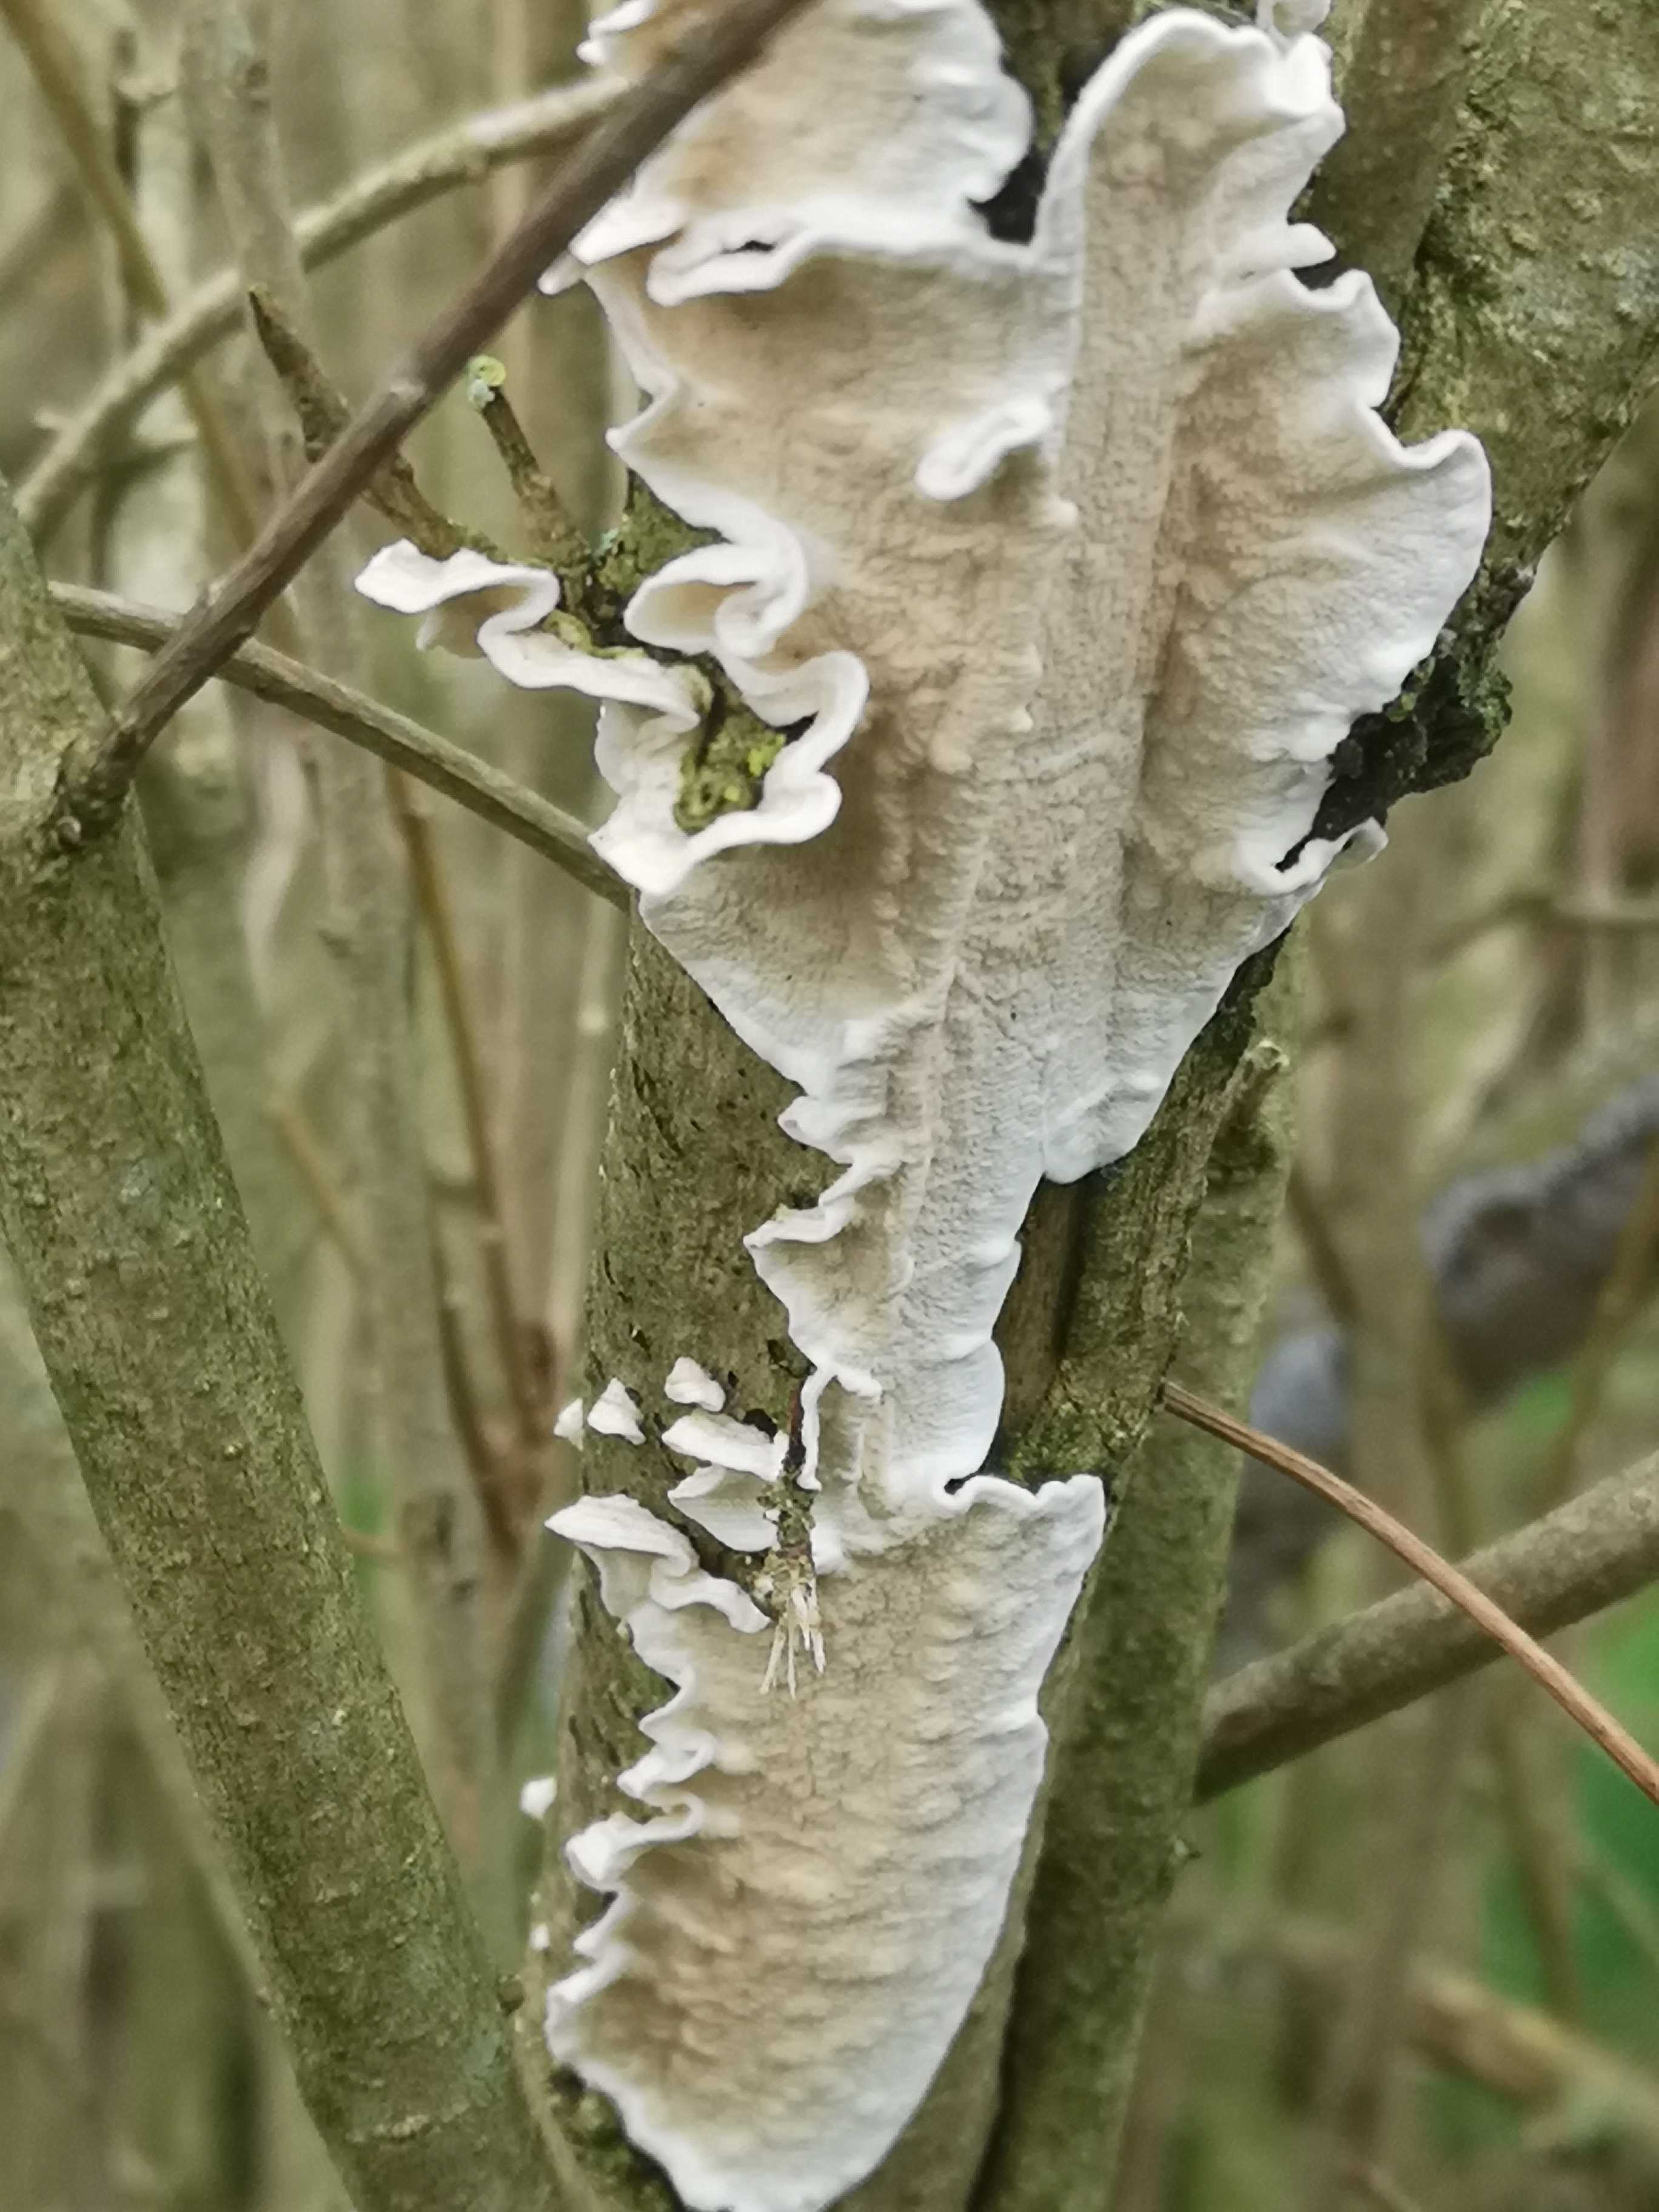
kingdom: Fungi
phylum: Basidiomycota
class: Agaricomycetes
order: Polyporales
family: Irpicaceae
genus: Byssomerulius
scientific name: Byssomerulius corium
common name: læder-åresvamp
